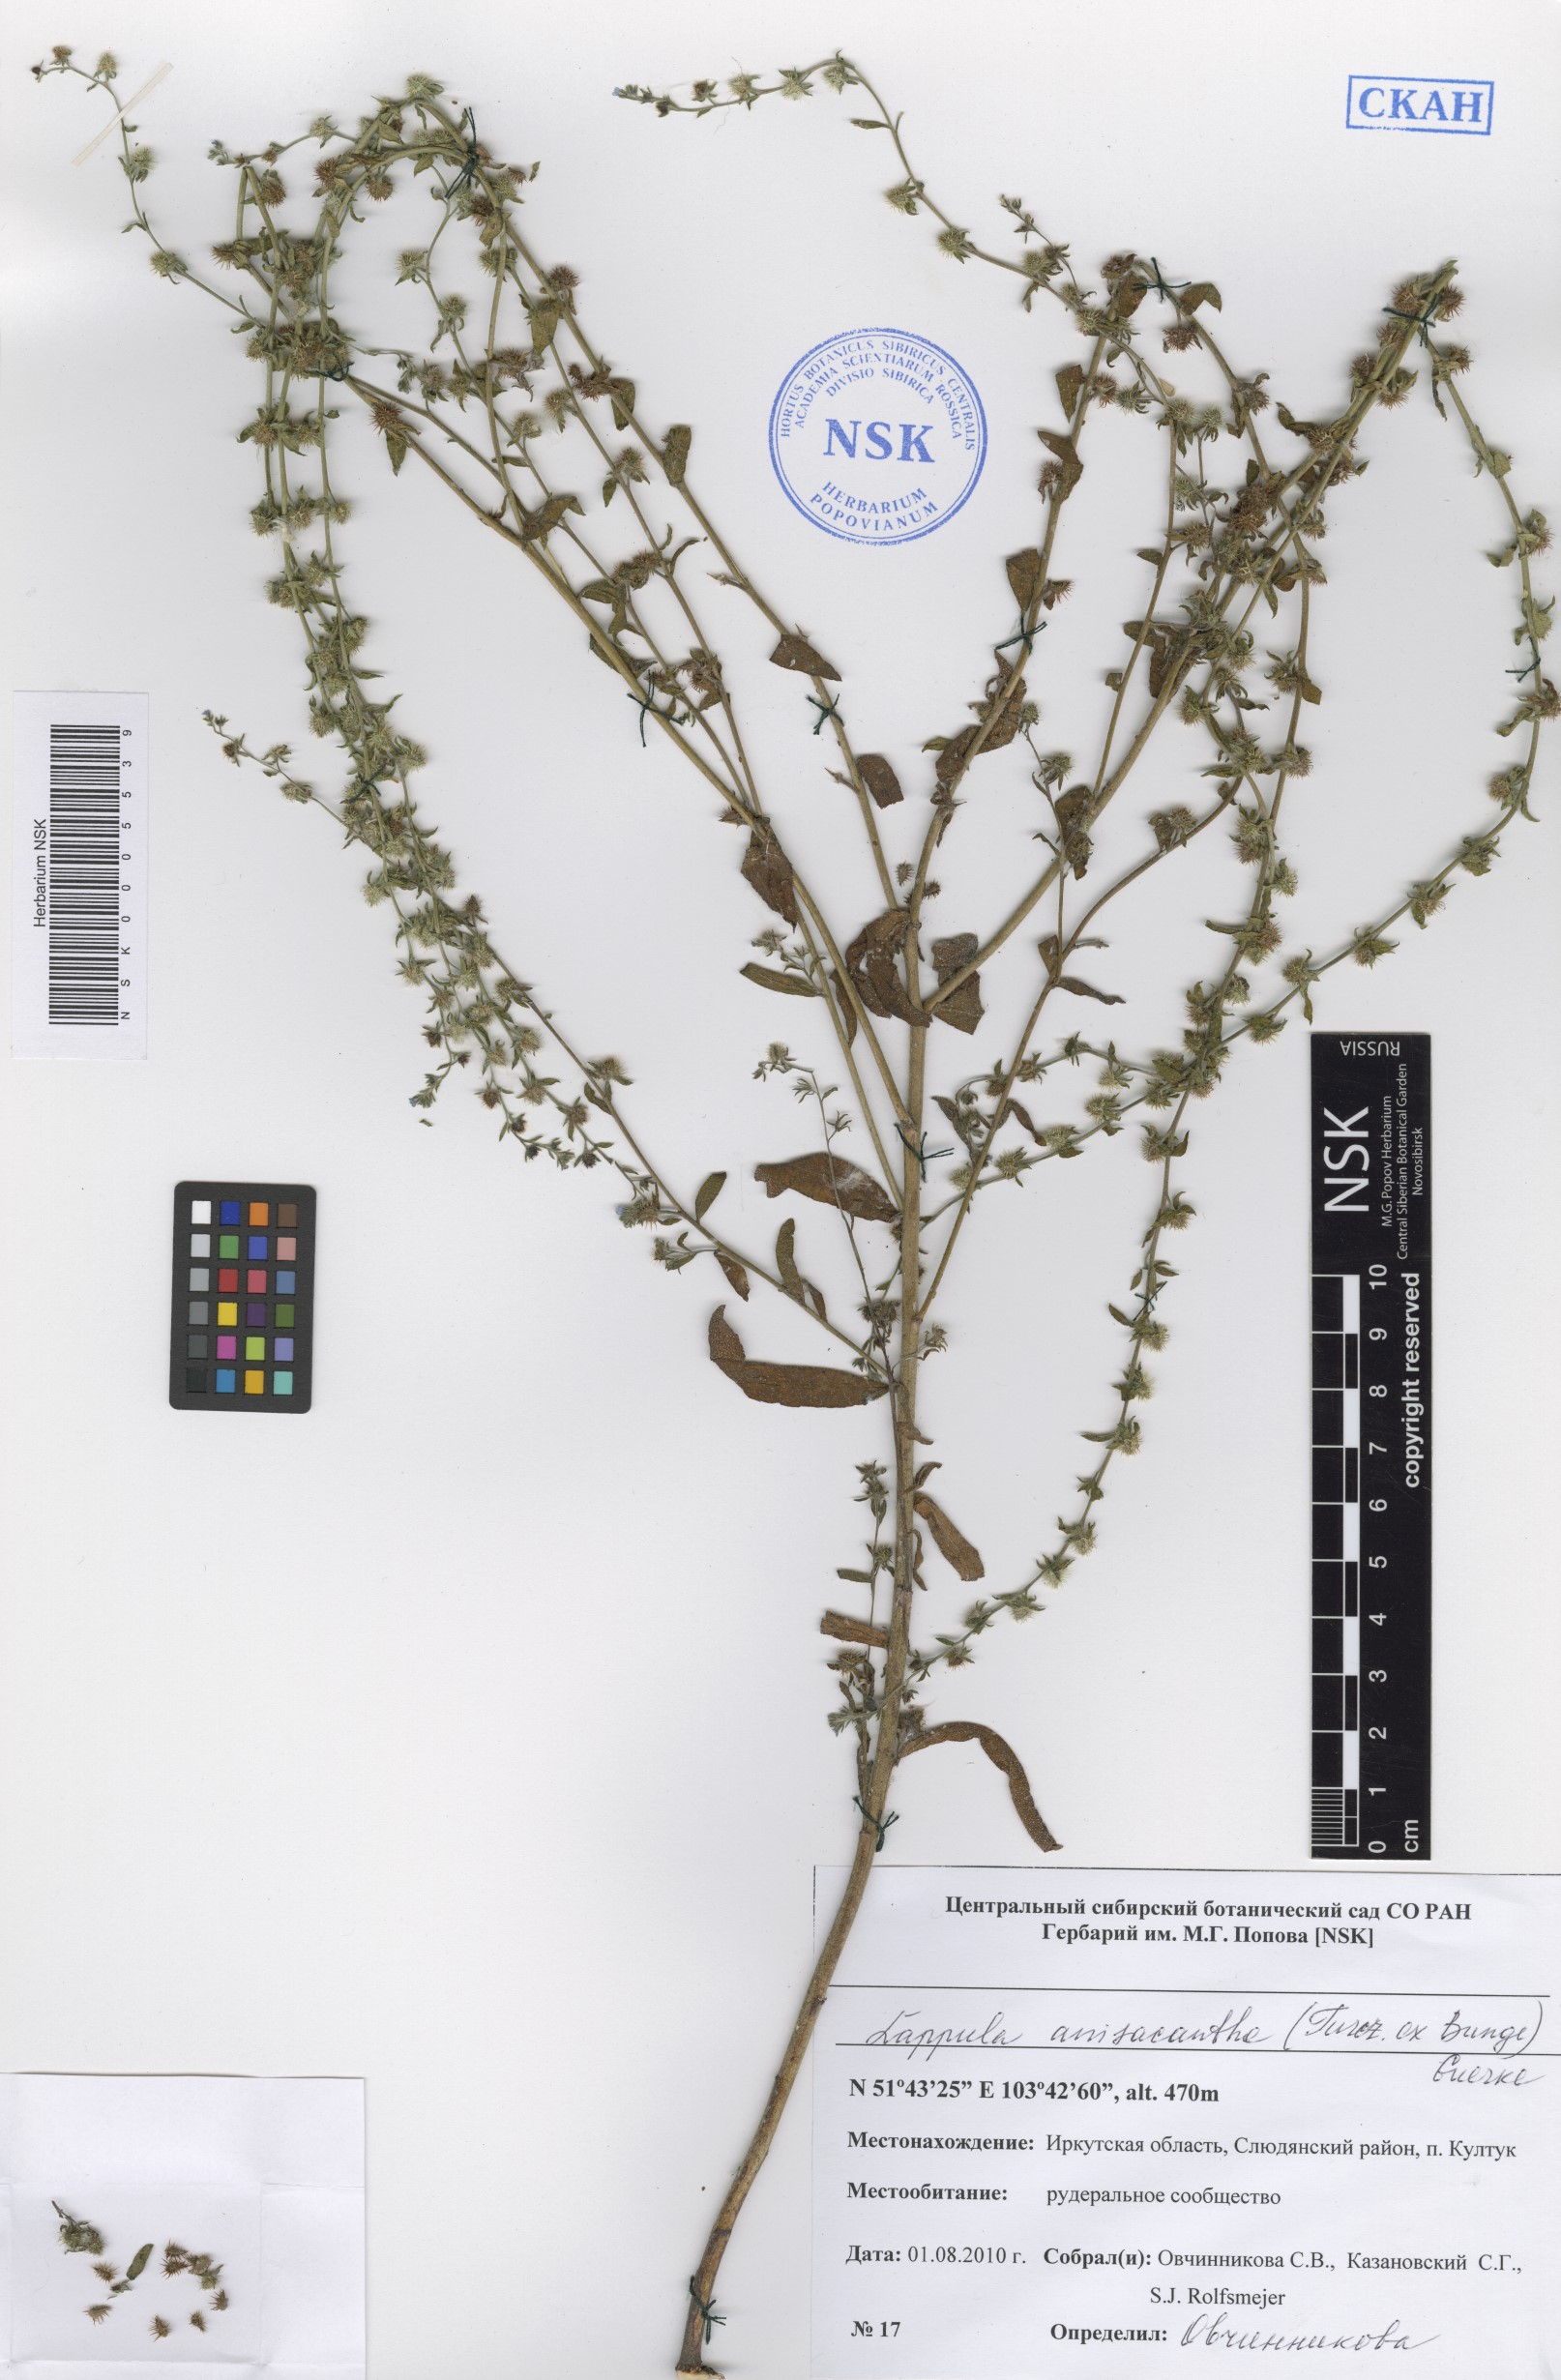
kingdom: Plantae
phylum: Tracheophyta
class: Magnoliopsida
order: Boraginales
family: Boraginaceae
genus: Lappula
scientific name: Lappula intermedia
